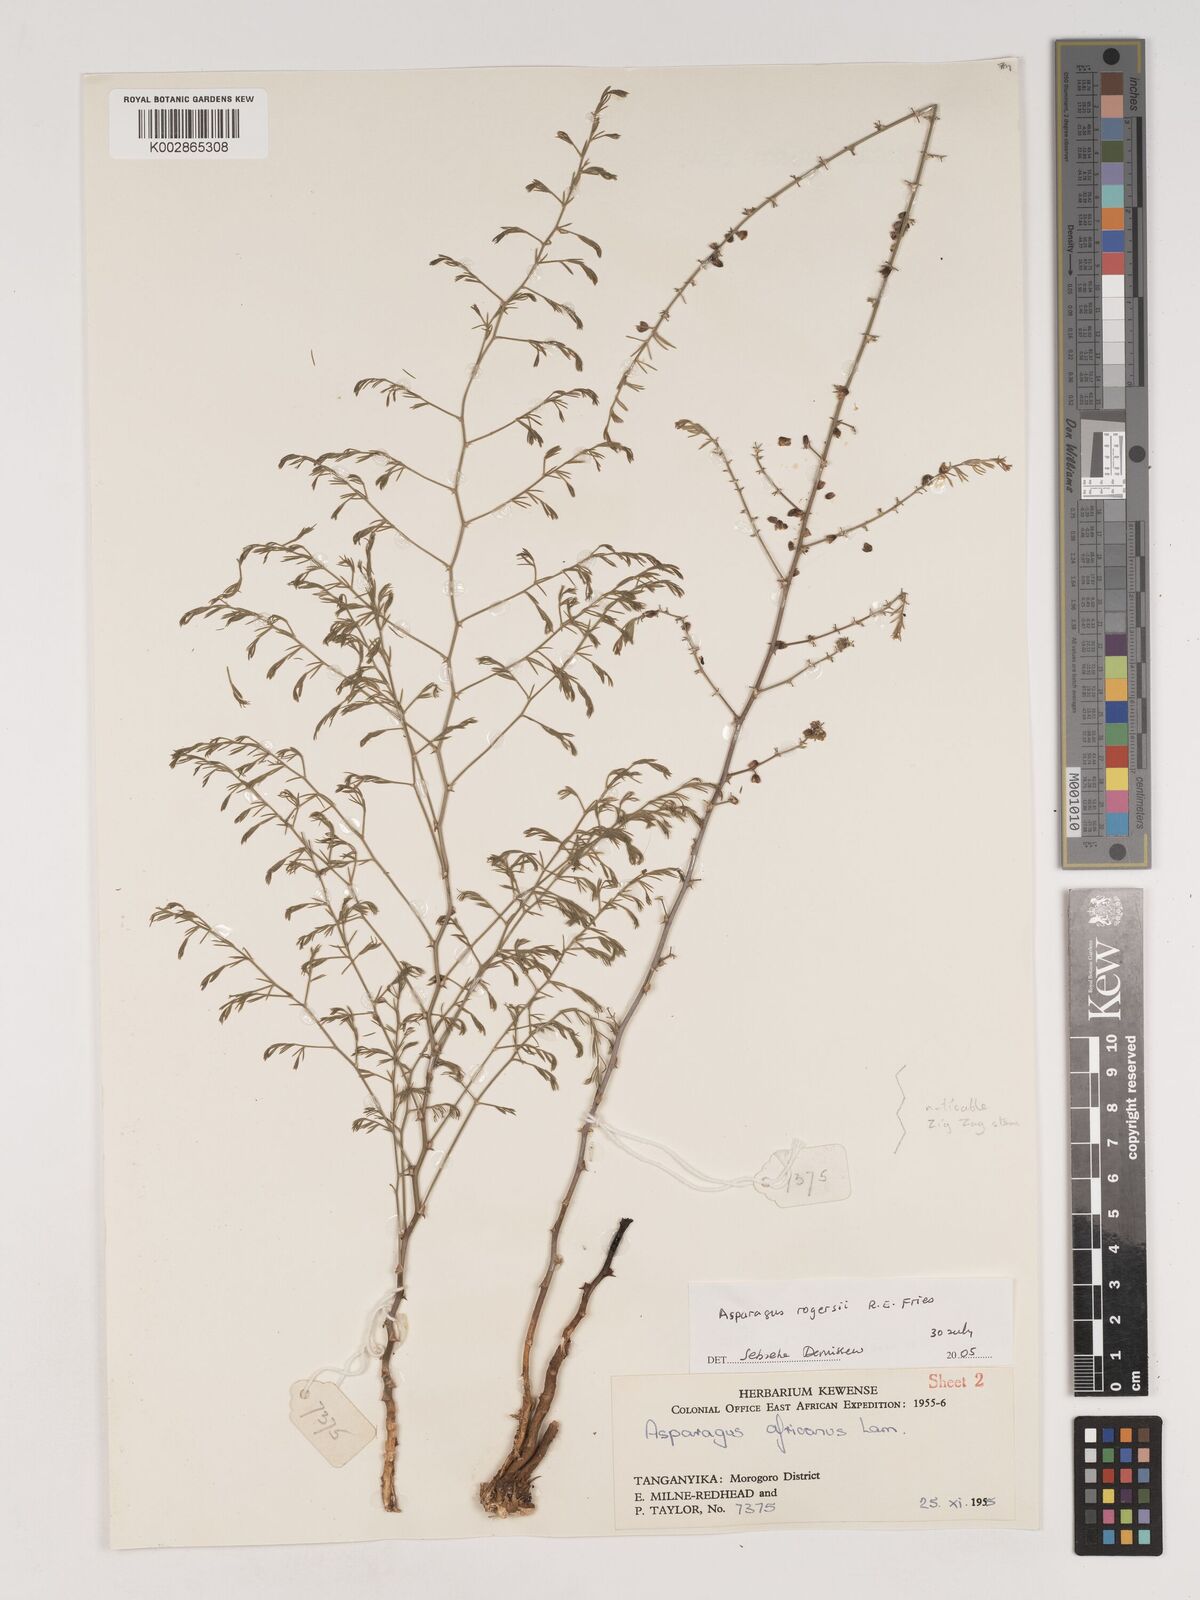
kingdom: Plantae
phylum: Tracheophyta
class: Liliopsida
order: Asparagales
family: Asparagaceae
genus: Asparagus
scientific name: Asparagus rogersii
